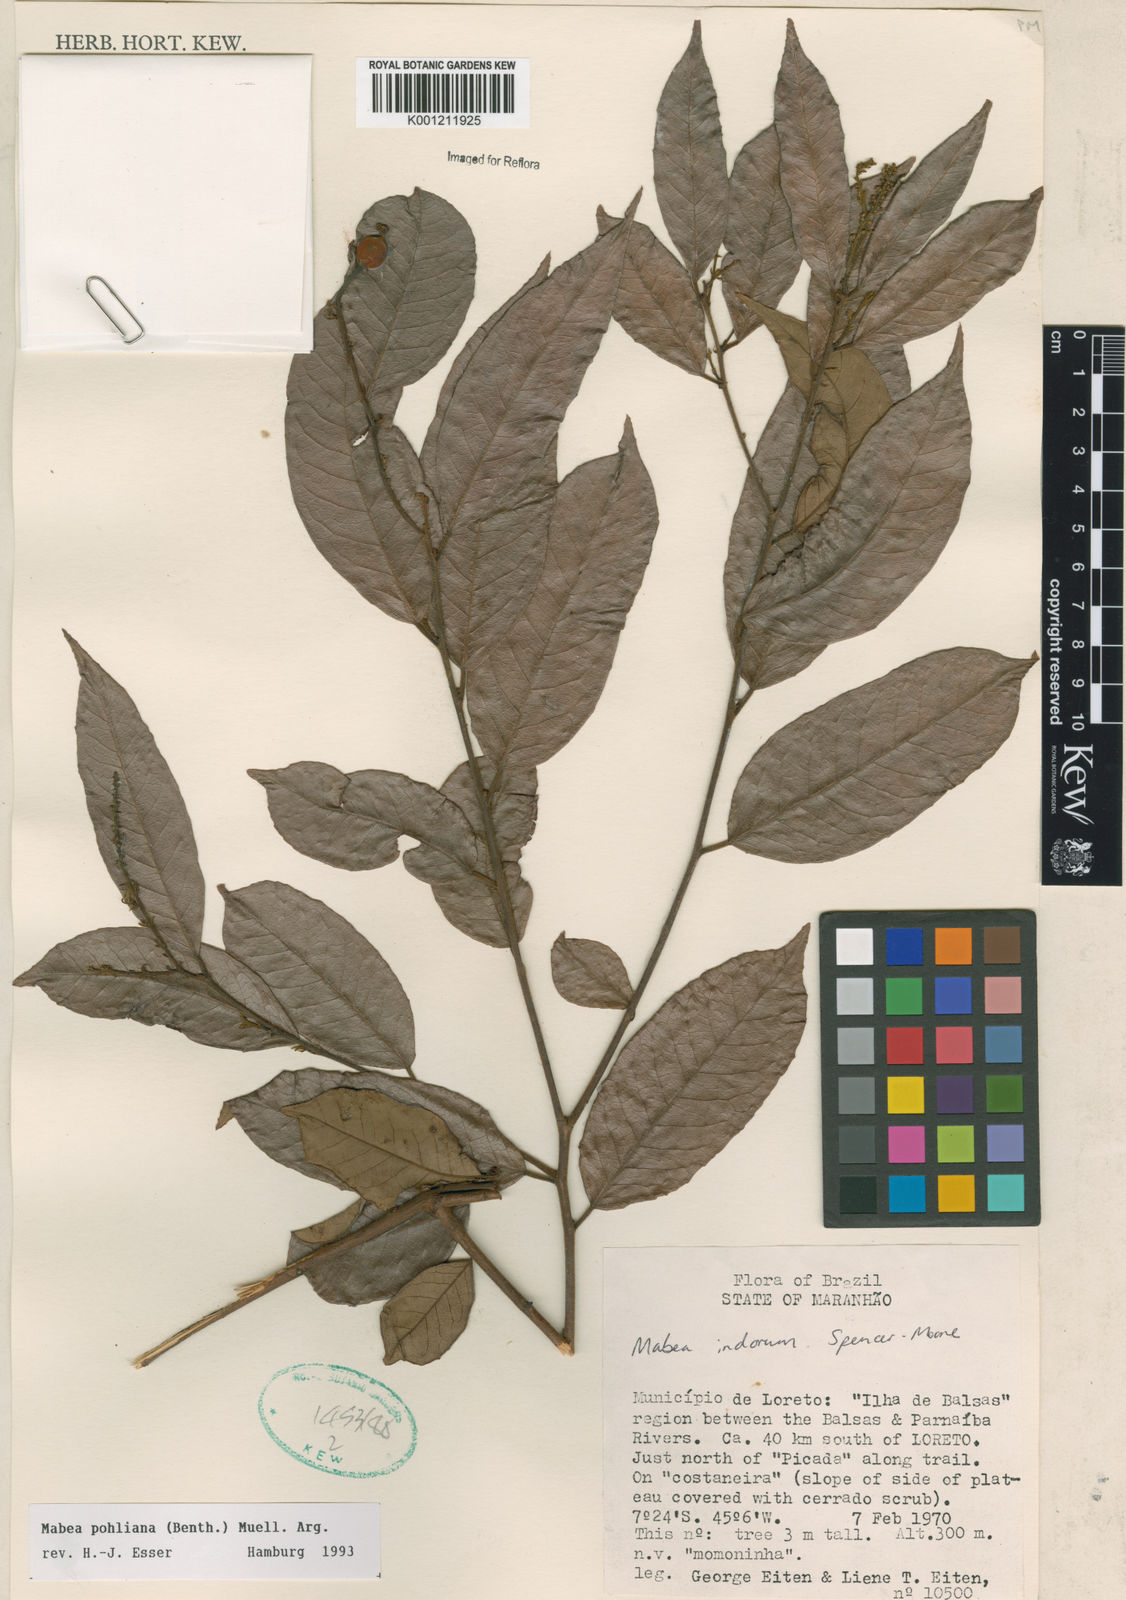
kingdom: Plantae
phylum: Tracheophyta
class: Magnoliopsida
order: Malpighiales
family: Euphorbiaceae
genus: Mabea
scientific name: Mabea
